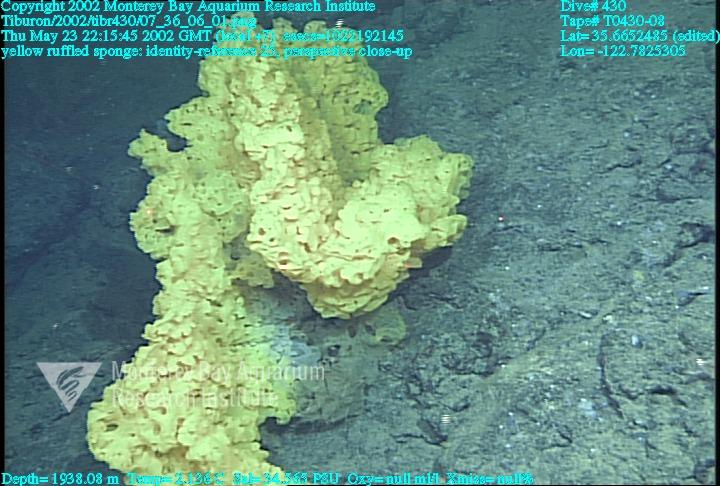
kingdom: Animalia
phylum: Porifera
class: Hexactinellida
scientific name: Hexactinellida
